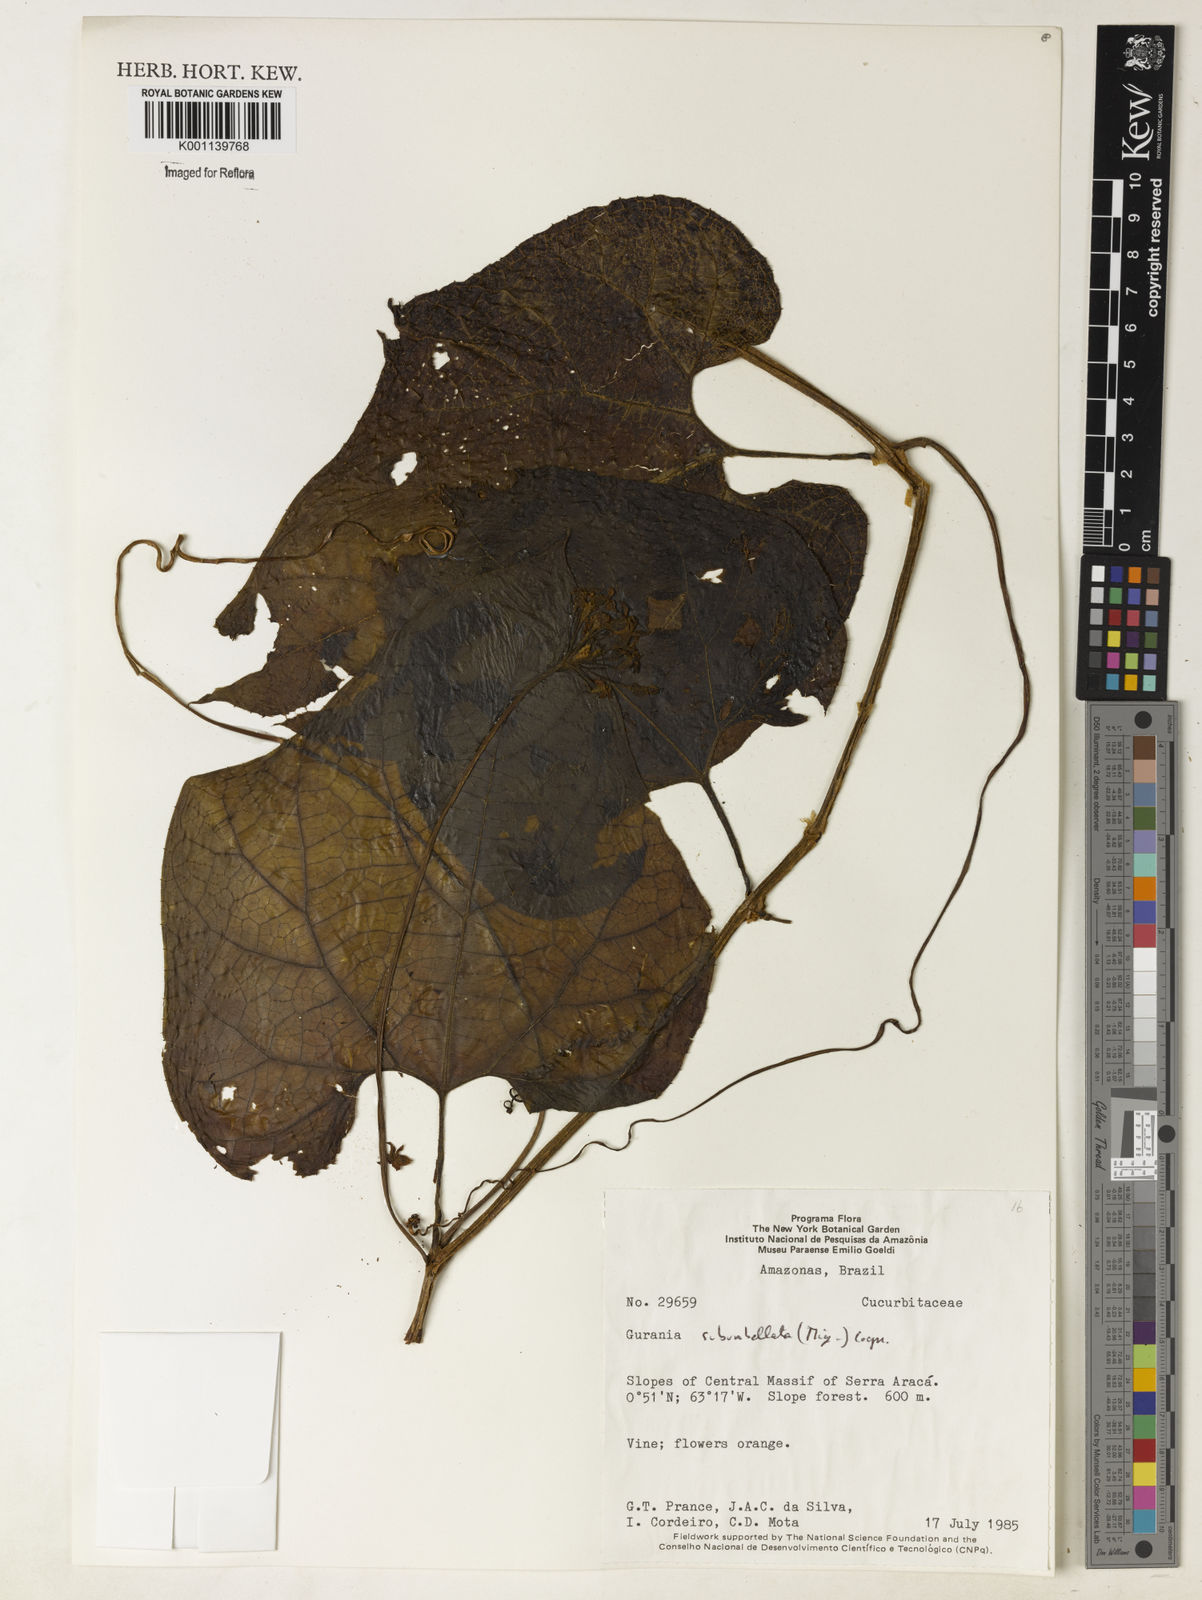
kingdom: Plantae
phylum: Tracheophyta
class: Magnoliopsida
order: Cucurbitales
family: Cucurbitaceae
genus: Gurania
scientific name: Gurania subumbellata
